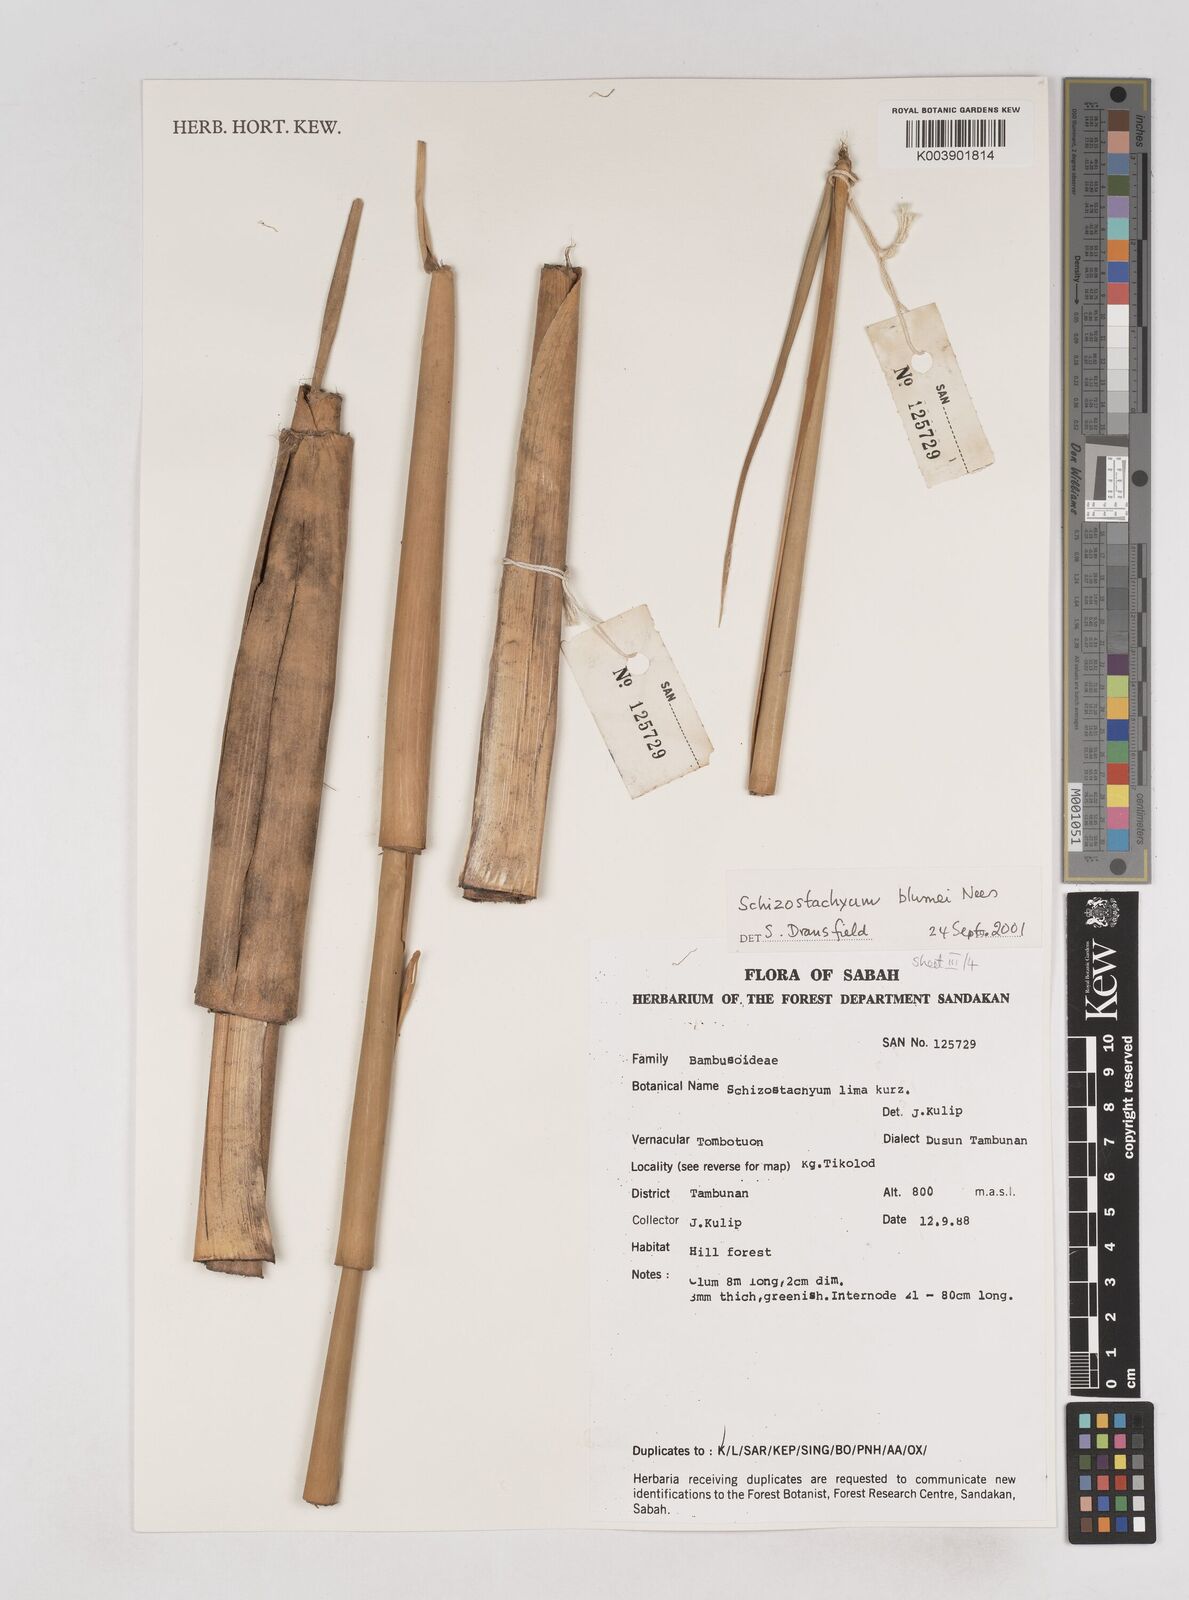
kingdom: Plantae
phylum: Tracheophyta
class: Liliopsida
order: Poales
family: Poaceae
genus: Schizostachyum
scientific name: Schizostachyum blumei
